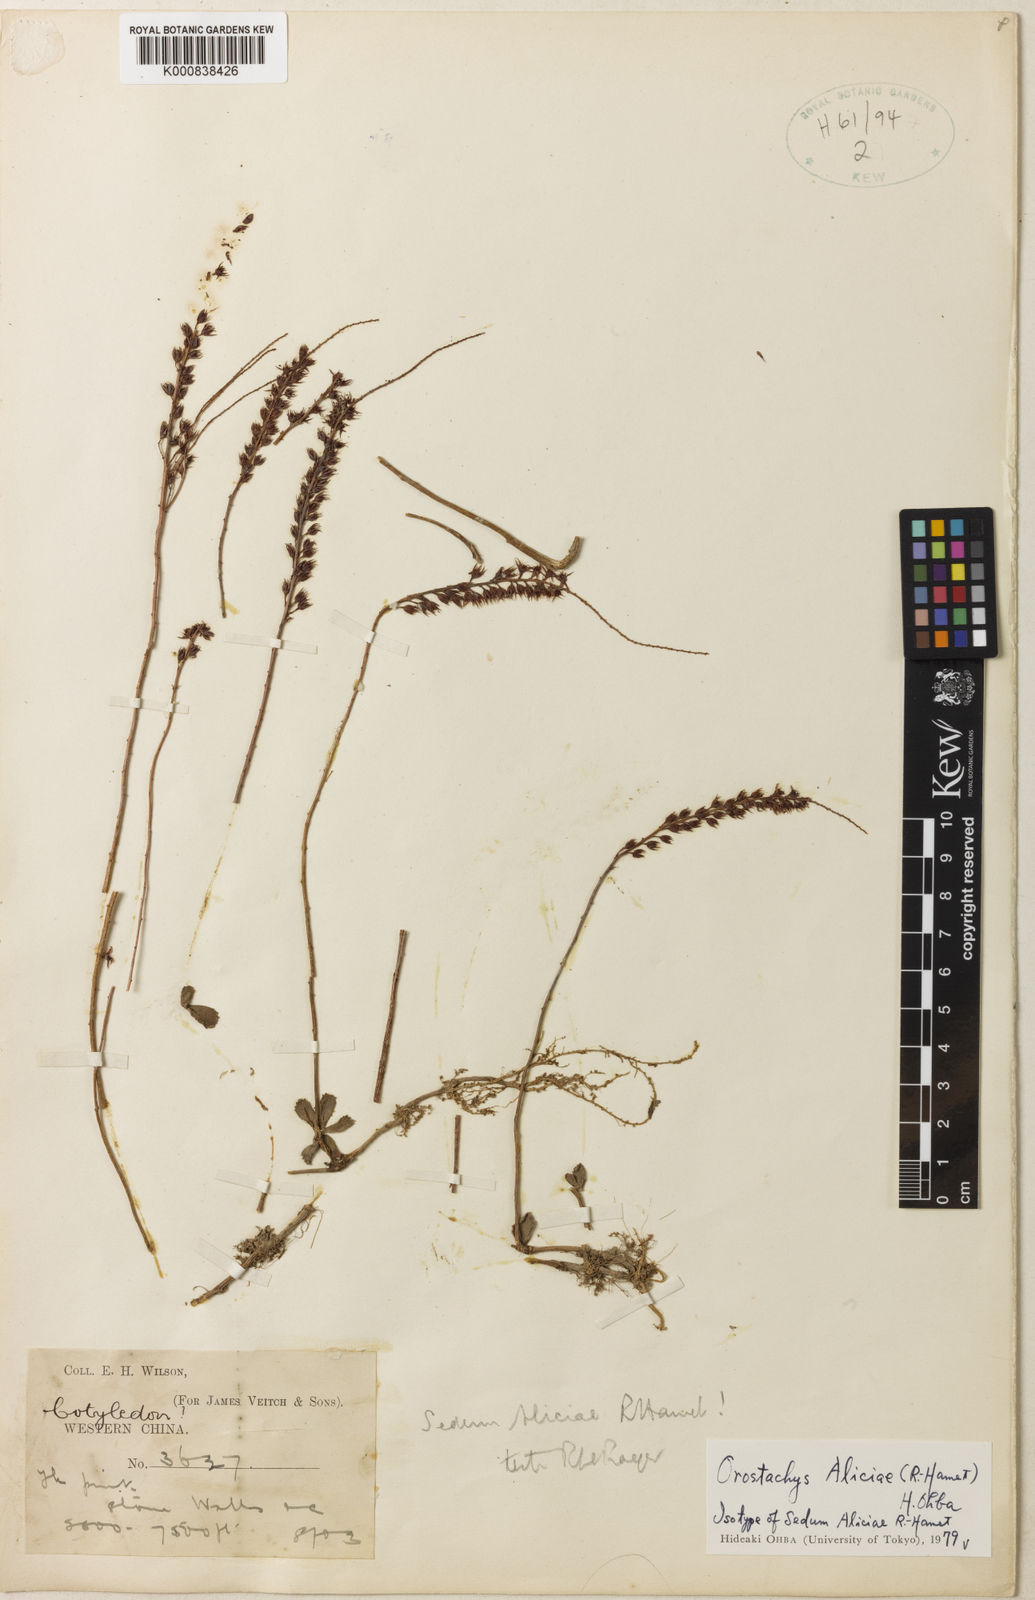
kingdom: Plantae
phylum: Tracheophyta
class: Magnoliopsida
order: Saxifragales
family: Crassulaceae
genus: Orostachys
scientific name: Orostachys aliciae
